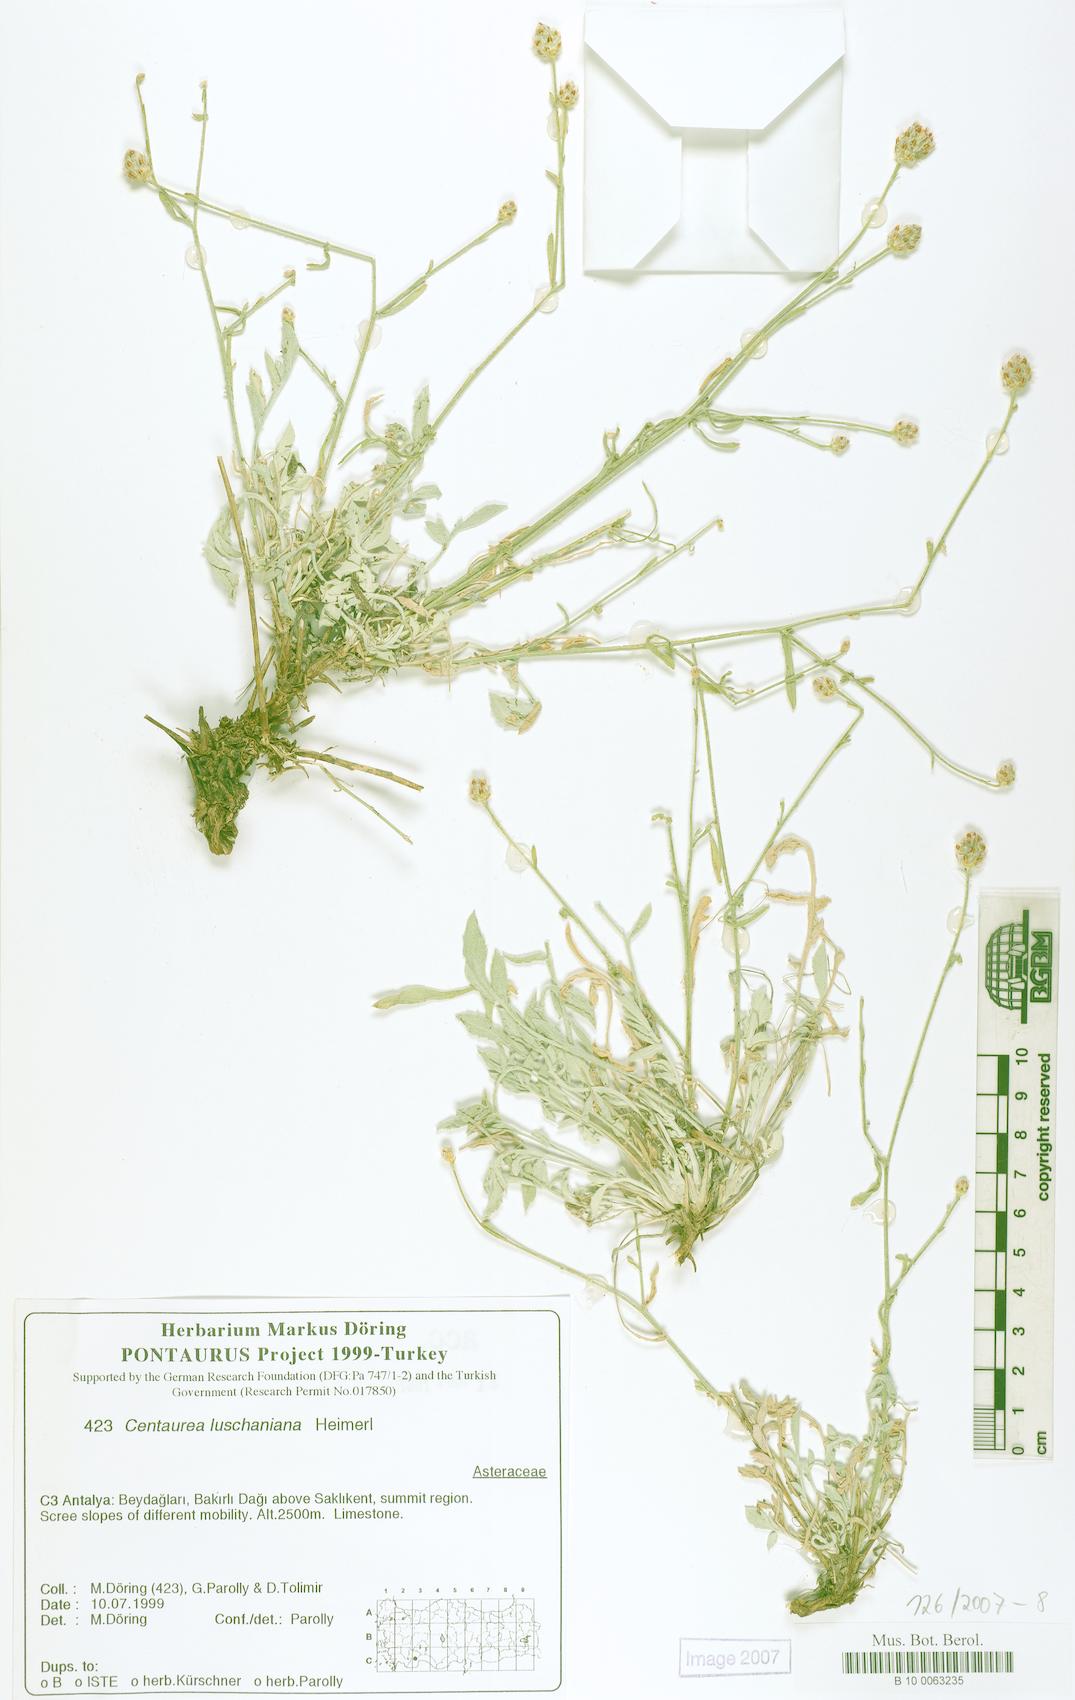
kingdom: Plantae
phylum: Tracheophyta
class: Magnoliopsida
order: Asterales
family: Asteraceae
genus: Centaurea
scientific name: Centaurea luschaniana
